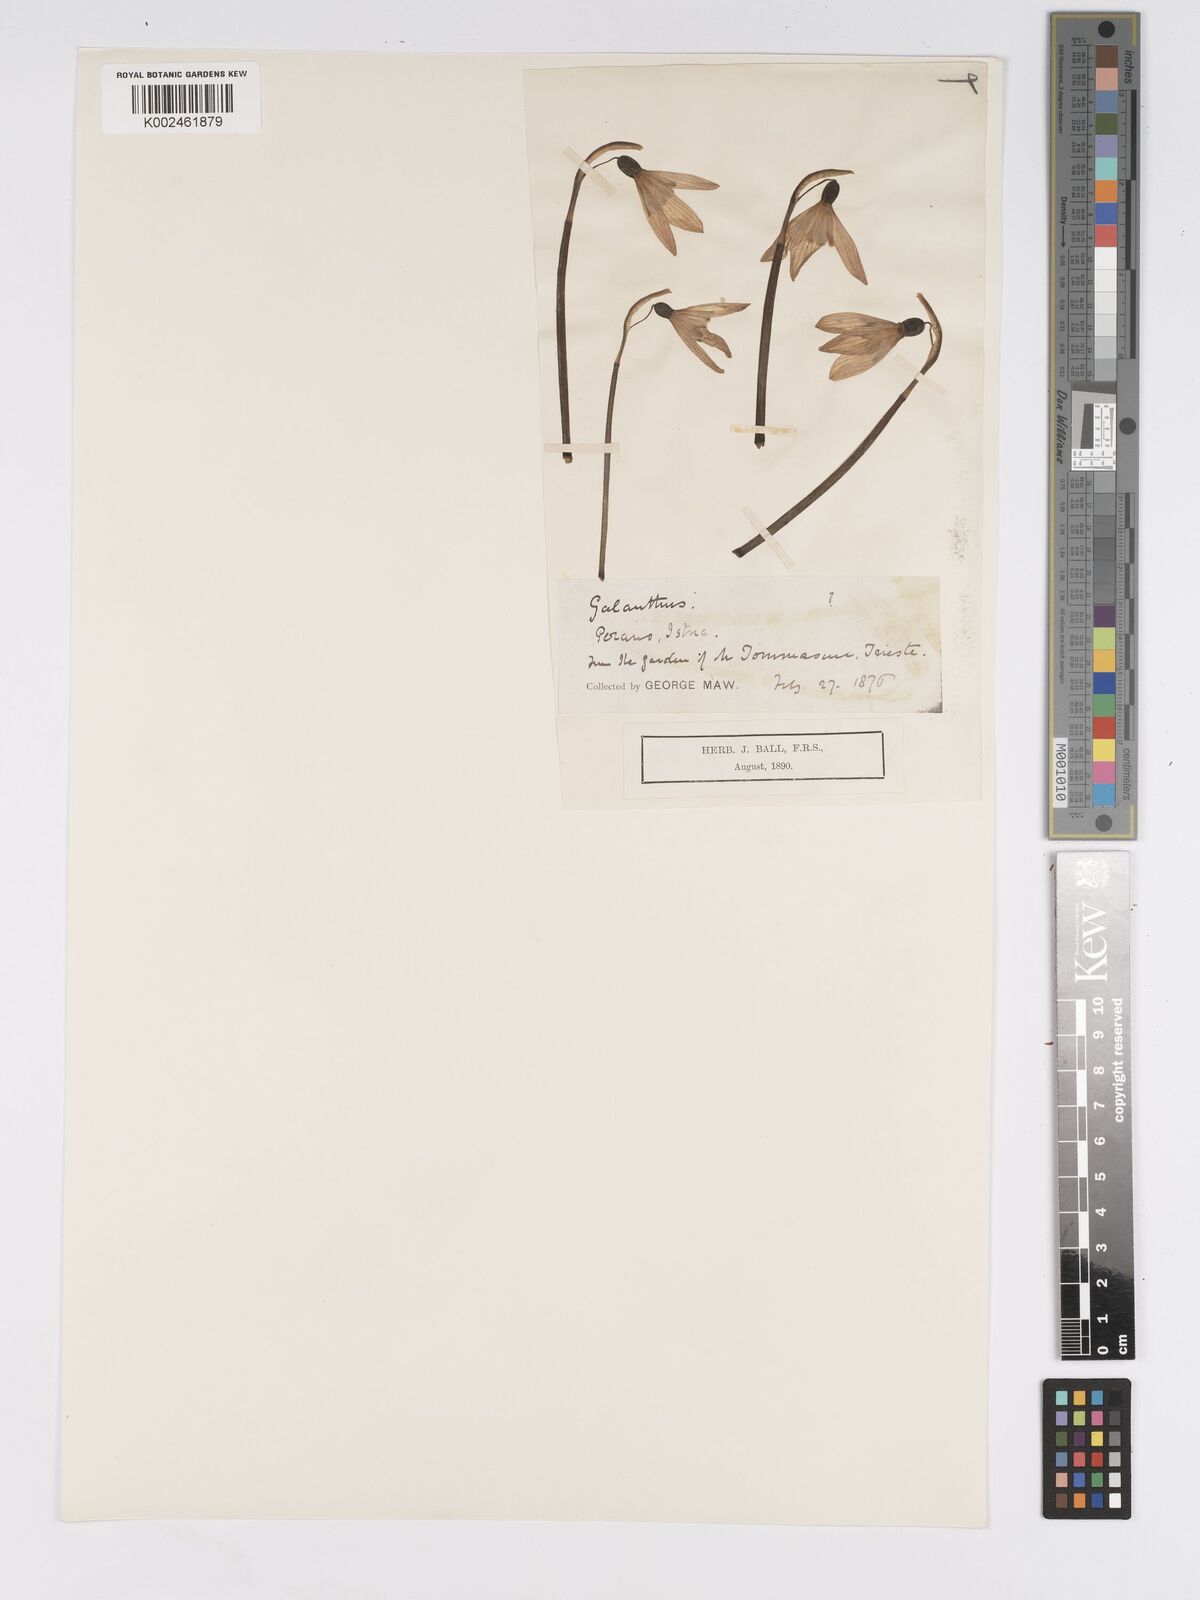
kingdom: Plantae
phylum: Tracheophyta
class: Liliopsida
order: Asparagales
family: Amaryllidaceae
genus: Galanthus
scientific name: Galanthus plicatus
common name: Pleated snowdrop
